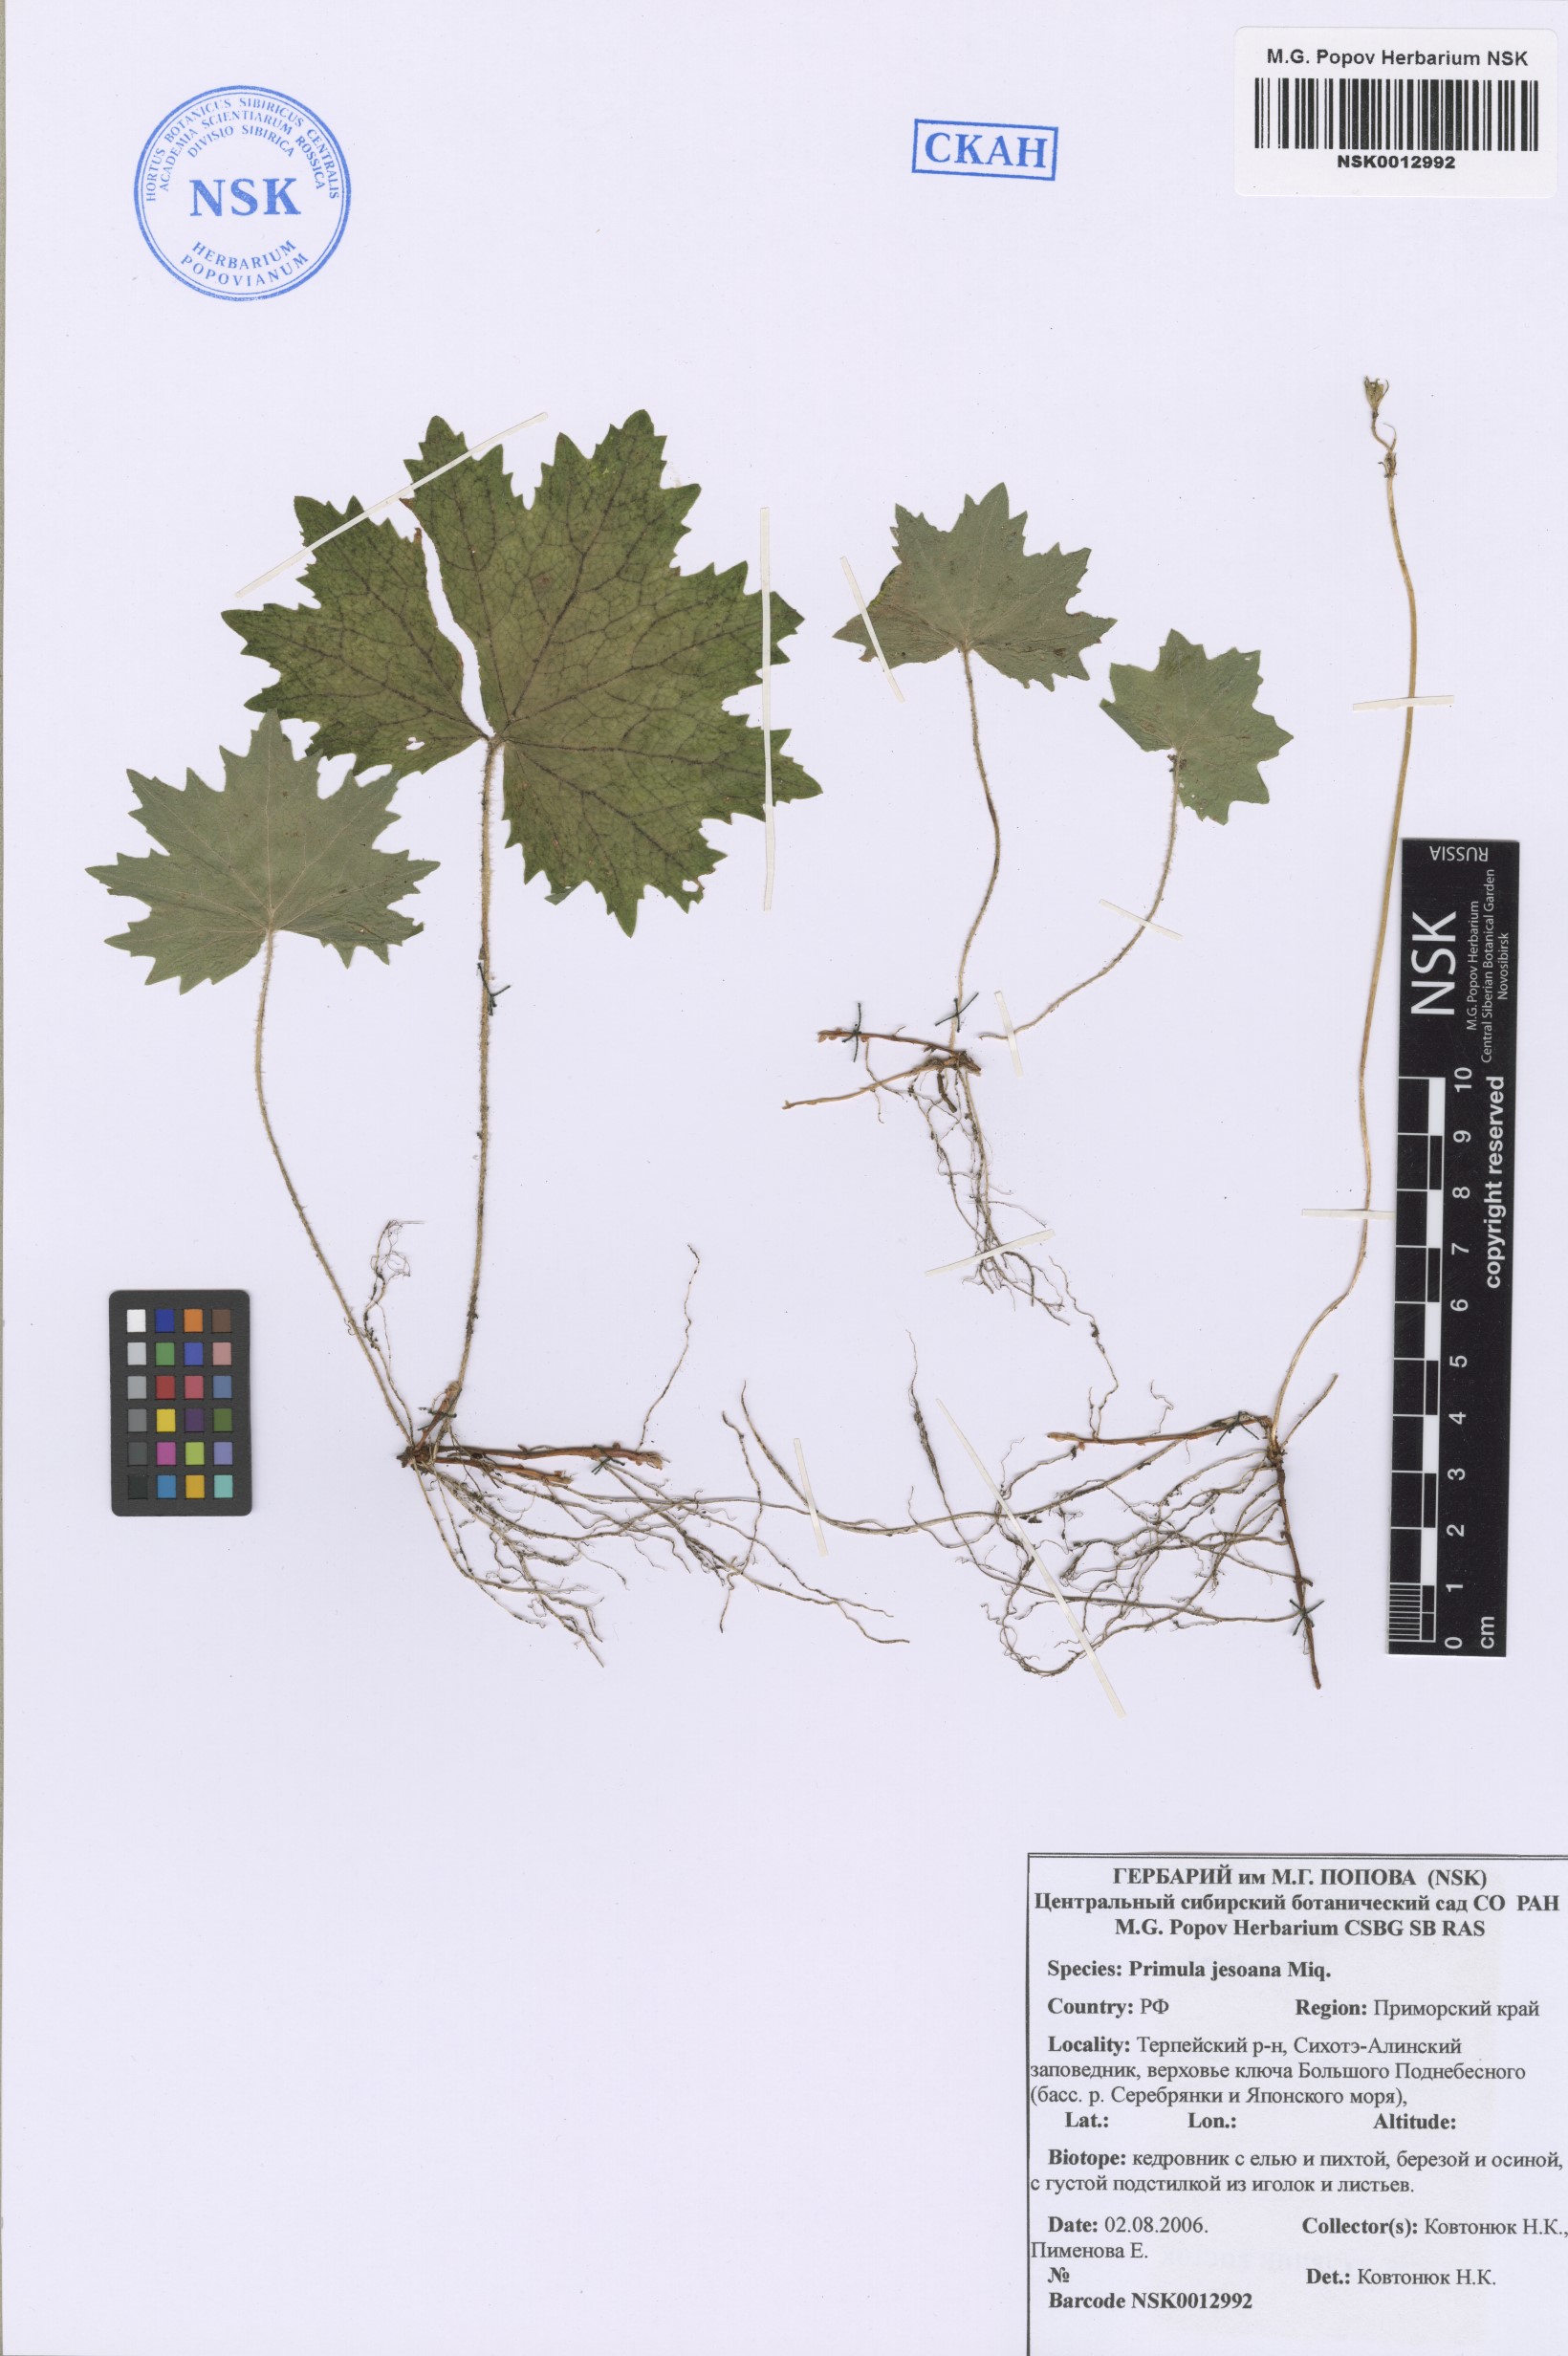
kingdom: Plantae
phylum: Tracheophyta
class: Magnoliopsida
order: Ericales
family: Primulaceae
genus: Primula
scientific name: Primula jesoana
